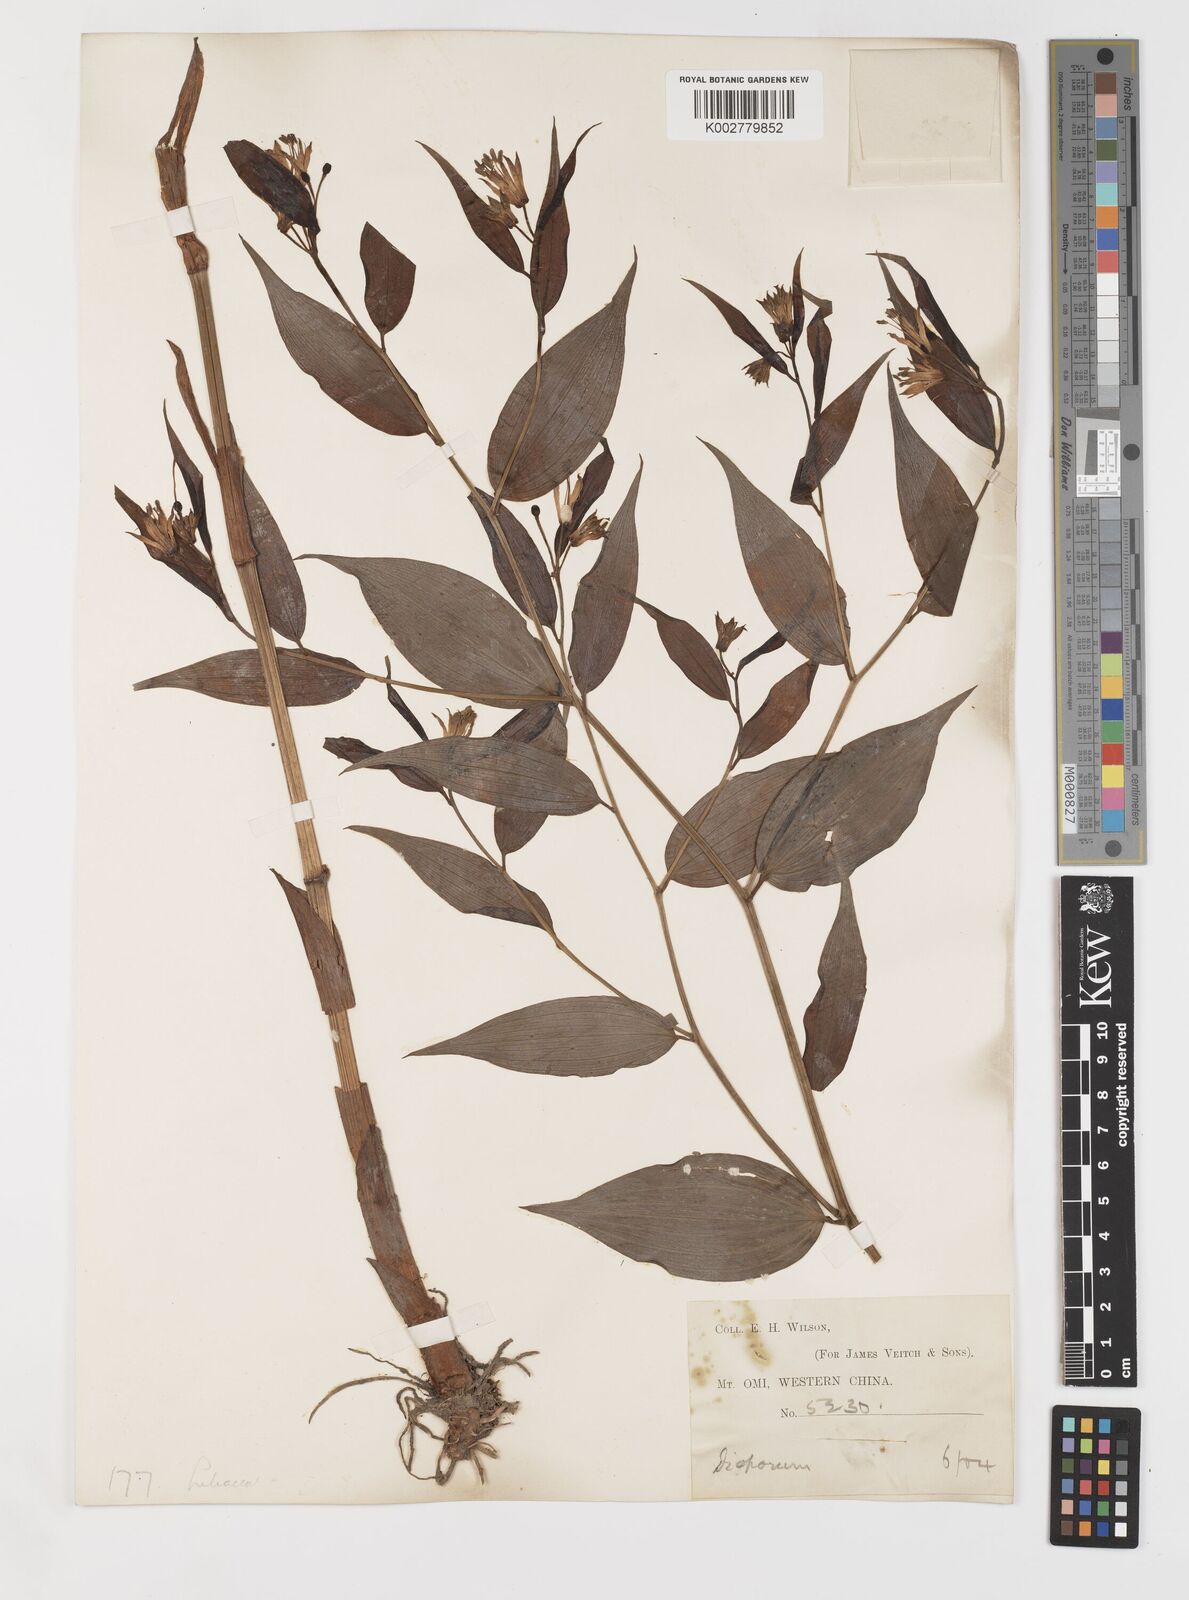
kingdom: Plantae
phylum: Tracheophyta
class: Liliopsida
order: Liliales
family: Colchicaceae
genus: Disporum
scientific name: Disporum sessile
